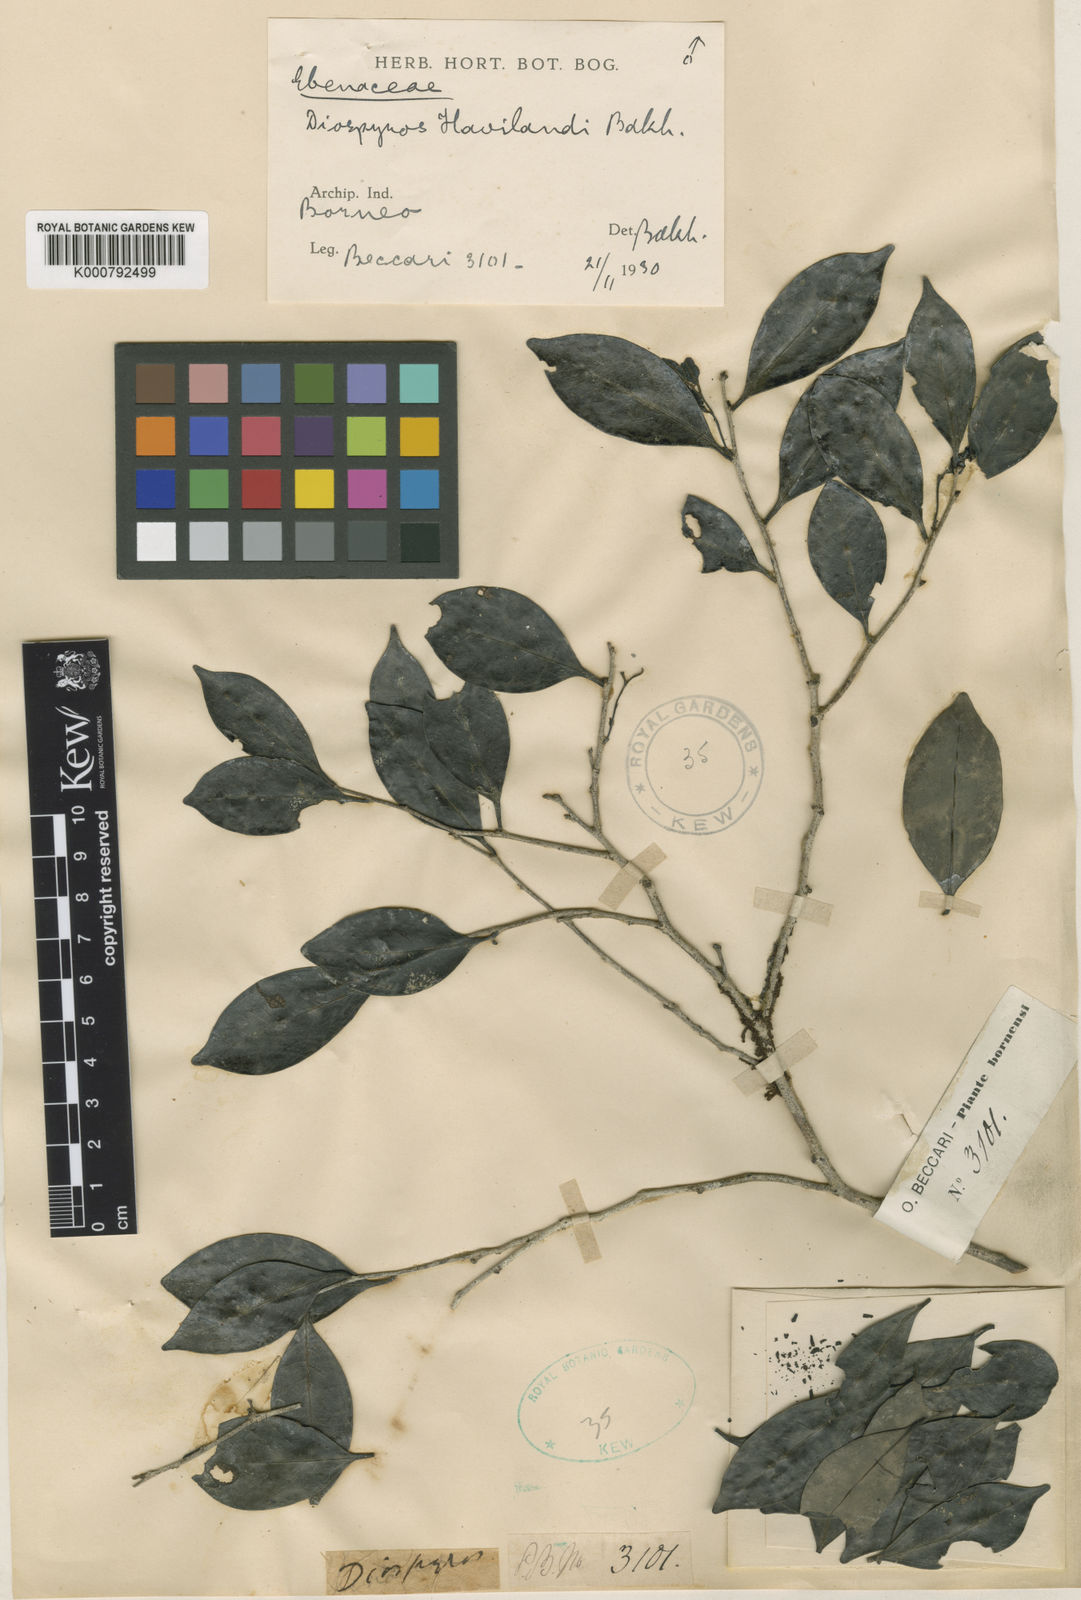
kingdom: Plantae
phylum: Tracheophyta
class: Magnoliopsida
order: Ericales
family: Ebenaceae
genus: Diospyros
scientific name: Diospyros havilandii
